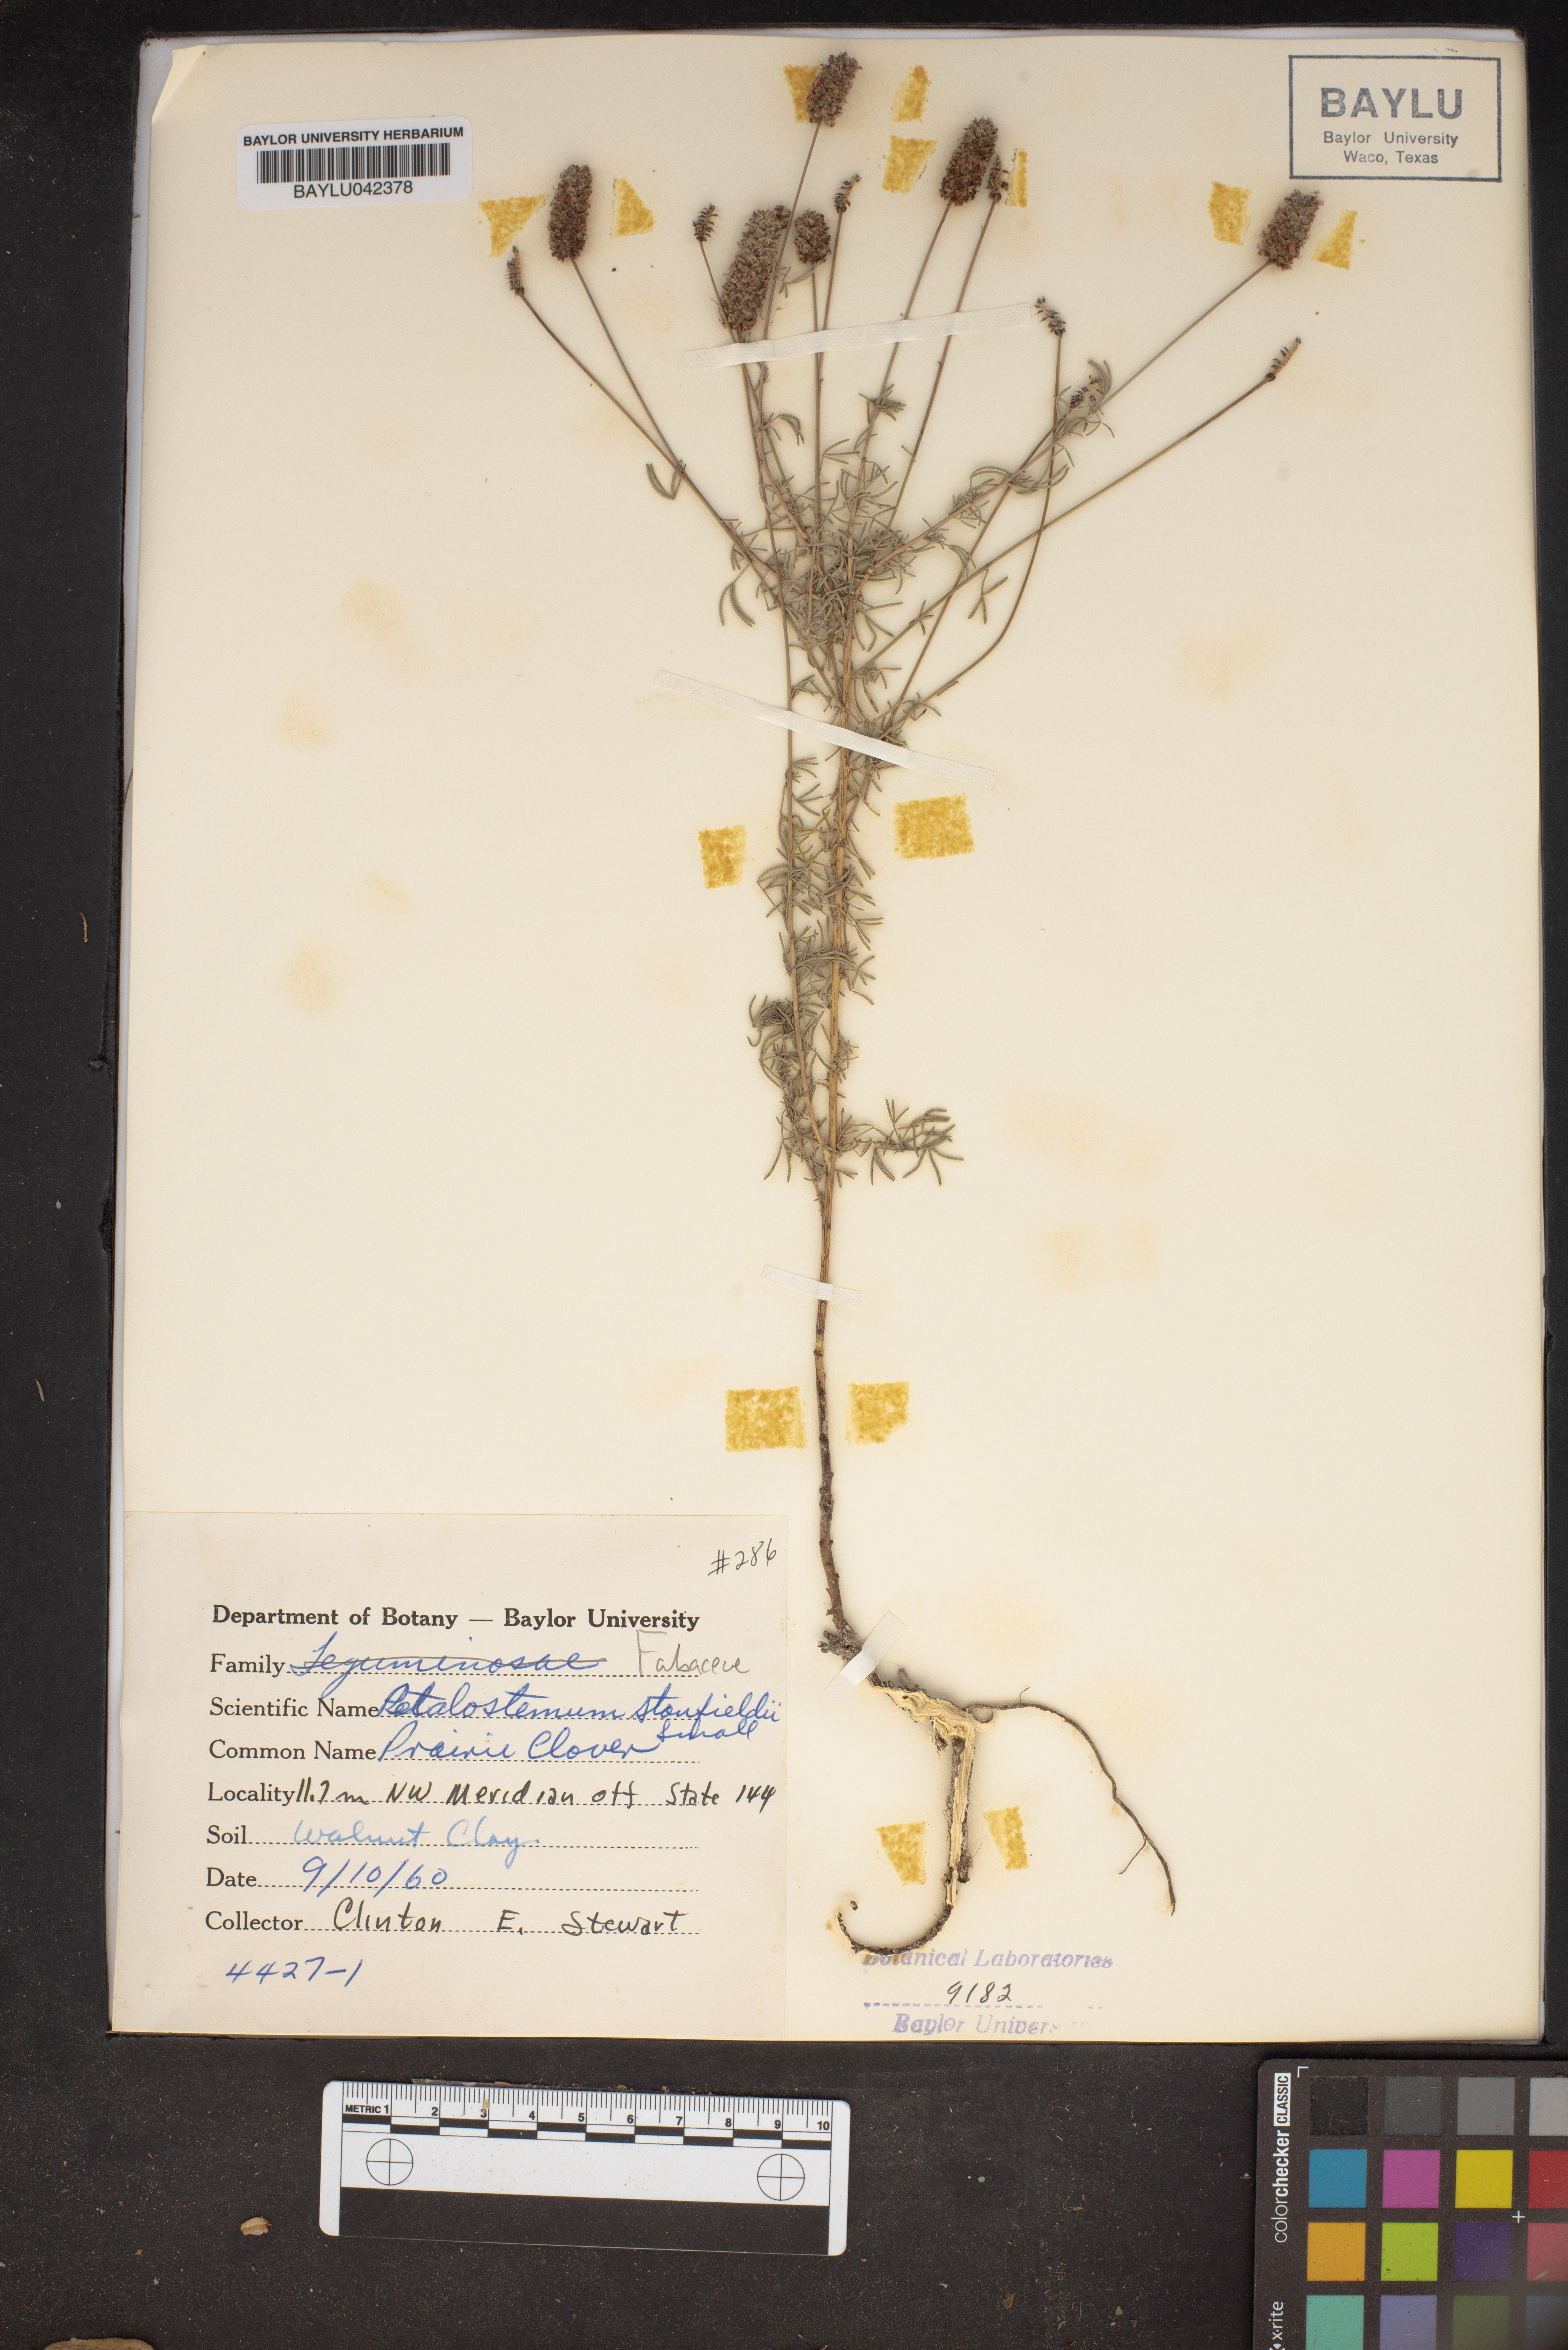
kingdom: Plantae
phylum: Tracheophyta
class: Magnoliopsida
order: Fabales
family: Fabaceae
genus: Dalea
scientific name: Dalea tenuis
